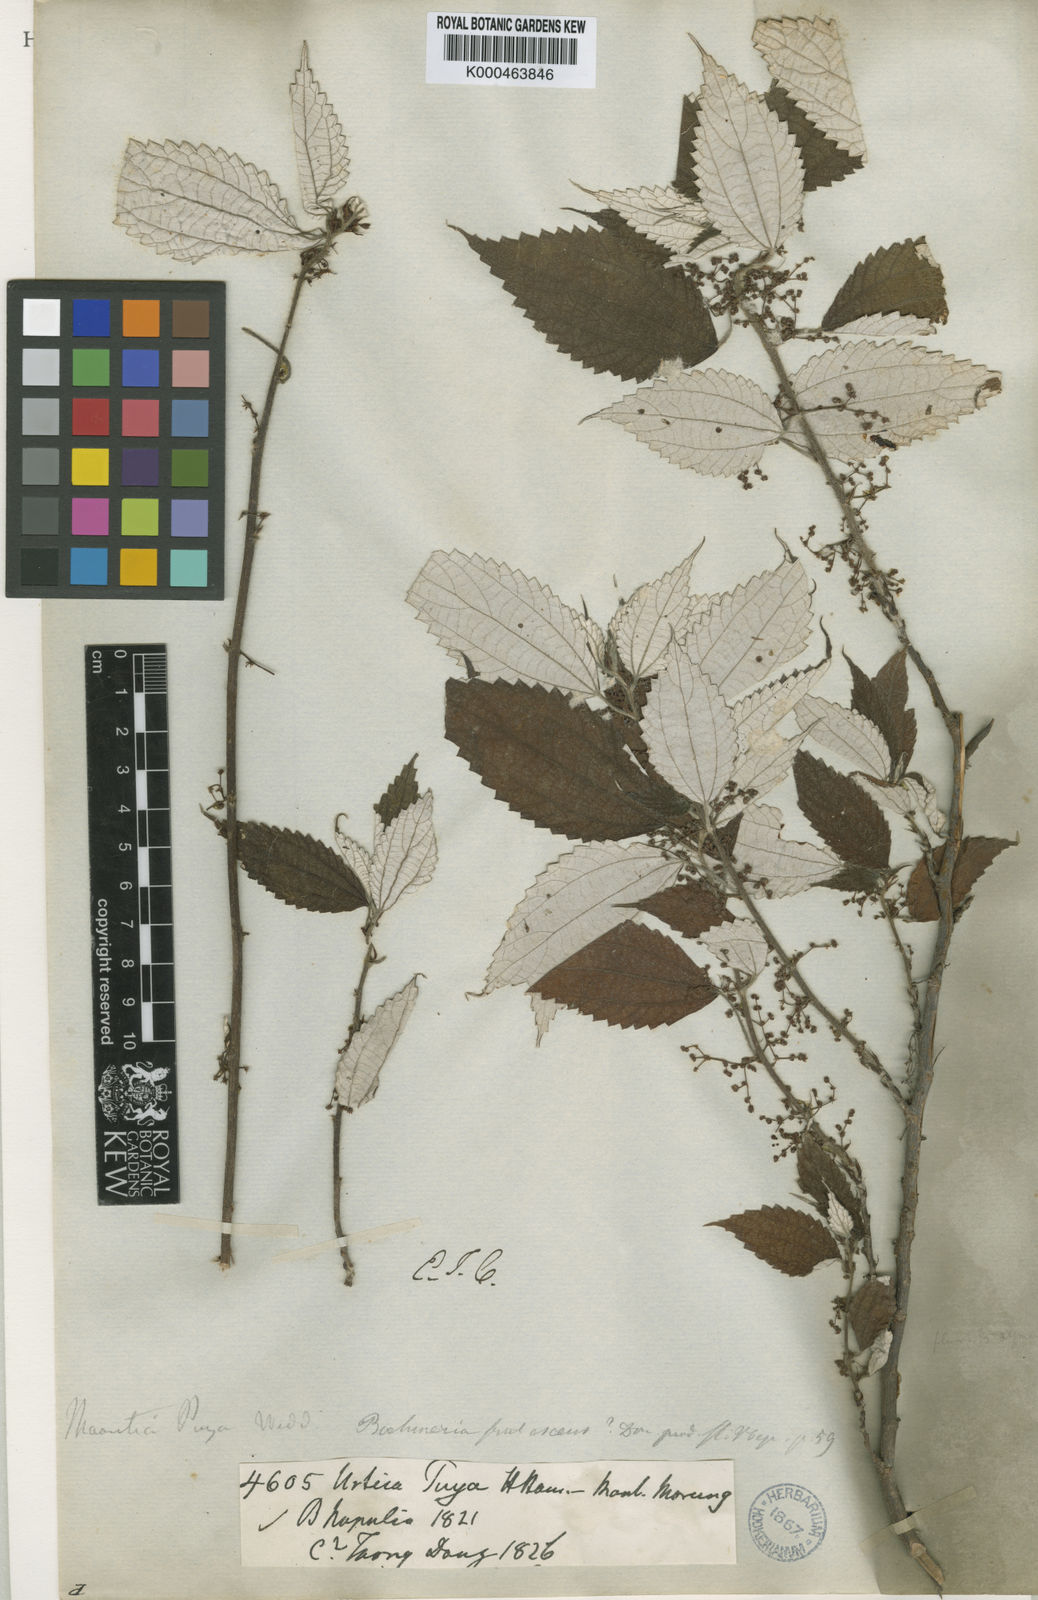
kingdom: Plantae
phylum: Tracheophyta
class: Magnoliopsida
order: Rosales
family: Urticaceae
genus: Leucosyke
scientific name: Leucosyke puya
